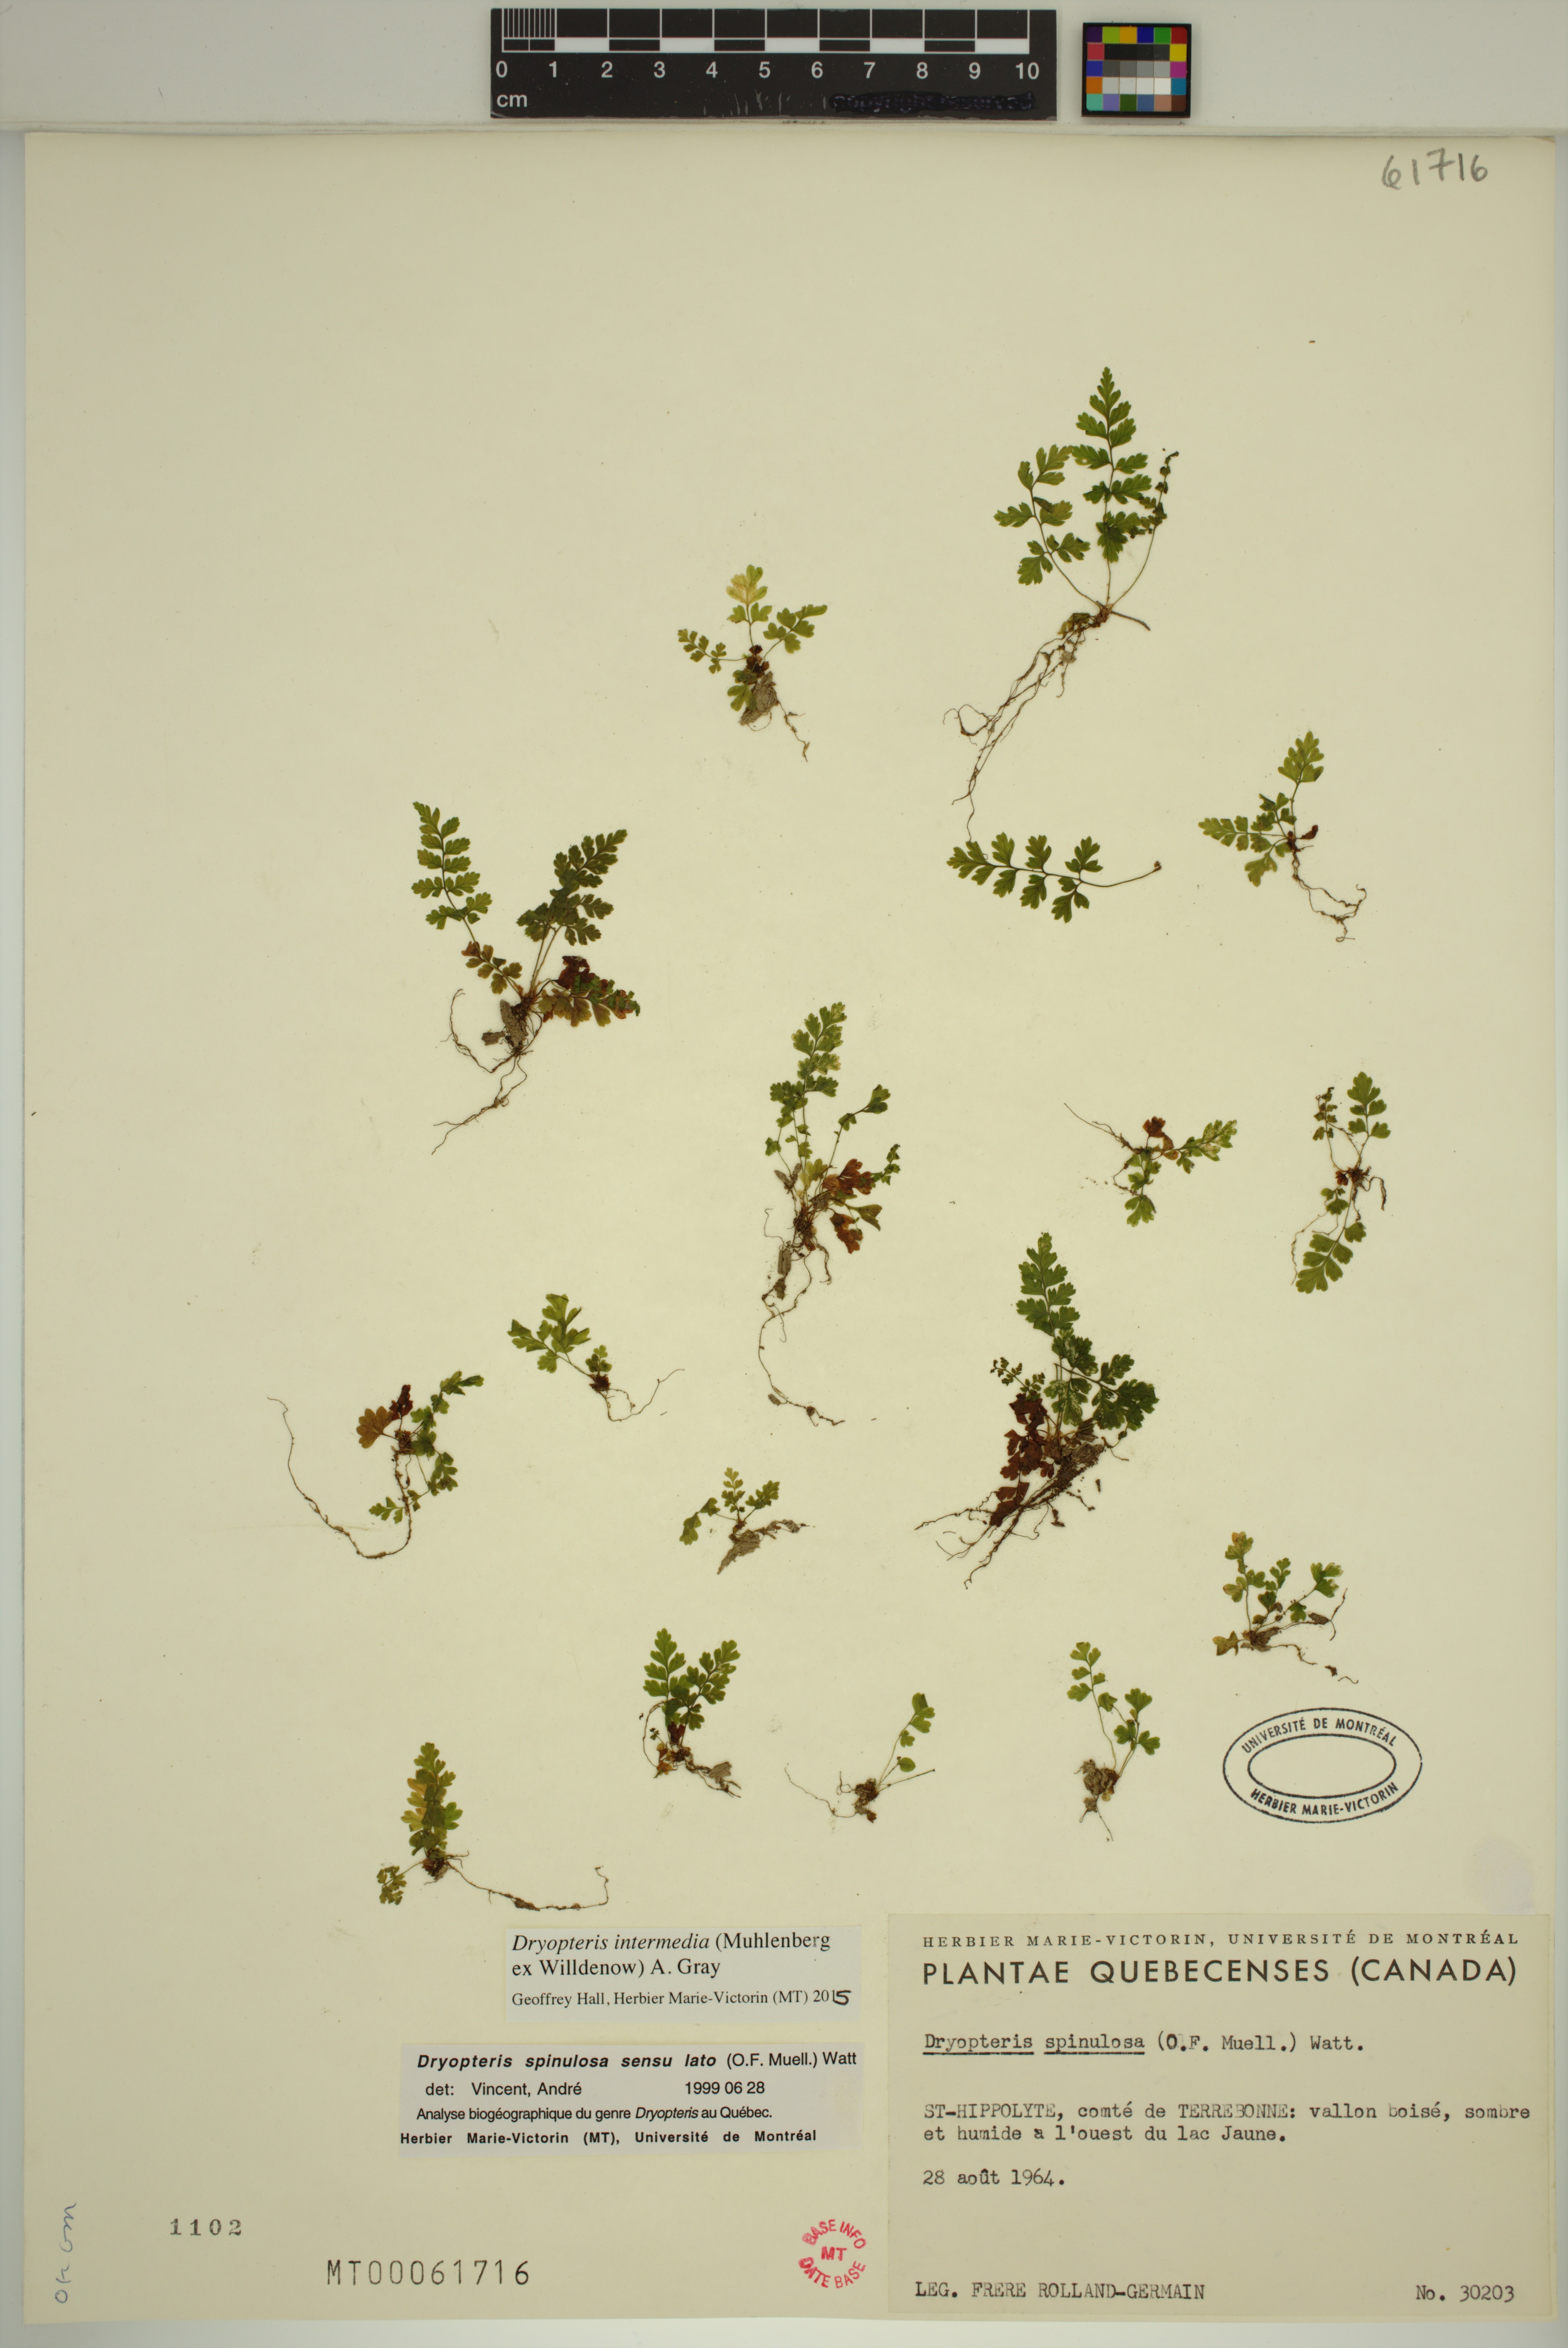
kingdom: Plantae
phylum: Tracheophyta
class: Polypodiopsida
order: Polypodiales
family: Dryopteridaceae
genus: Dryopteris
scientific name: Dryopteris intermedia
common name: Evergreen wood fern
